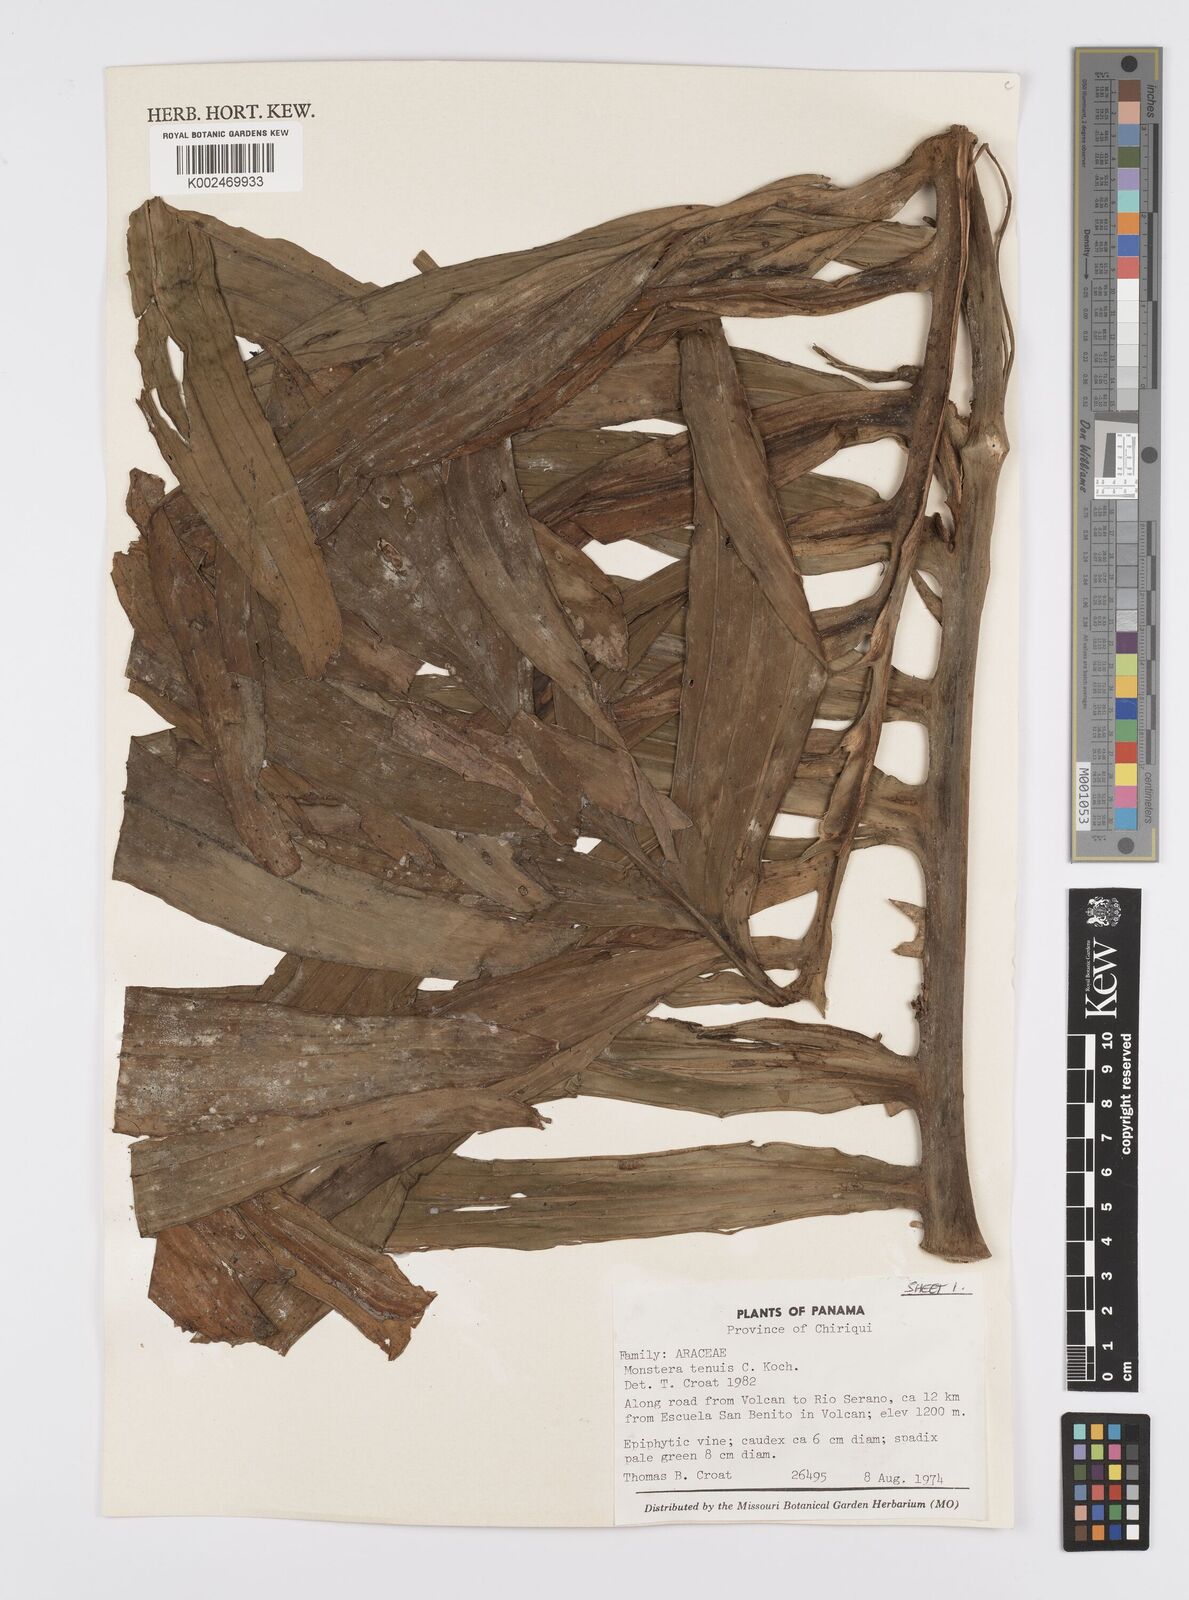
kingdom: Plantae
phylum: Tracheophyta
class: Liliopsida
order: Alismatales
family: Araceae
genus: Monstera
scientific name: Monstera tenuis
